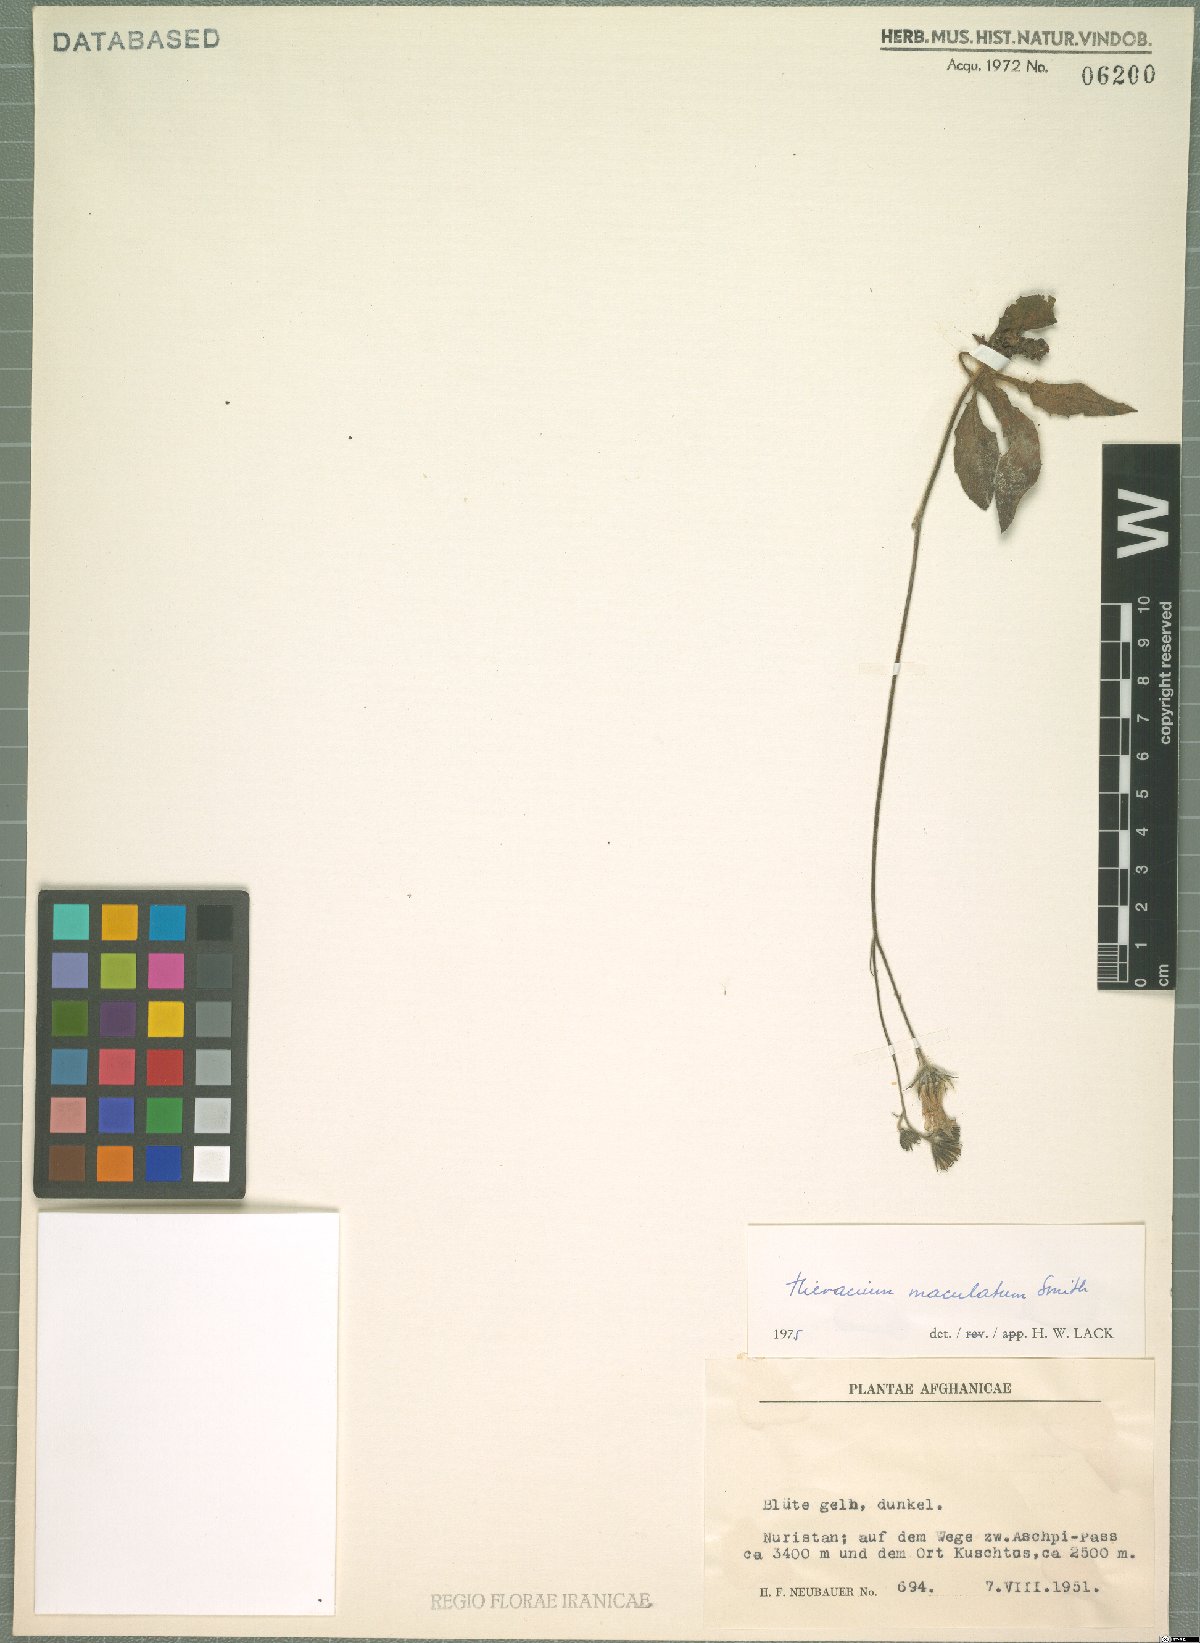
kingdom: Plantae
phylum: Tracheophyta
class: Magnoliopsida
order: Asterales
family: Asteraceae
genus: Hieracium
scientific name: Hieracium maculatum
